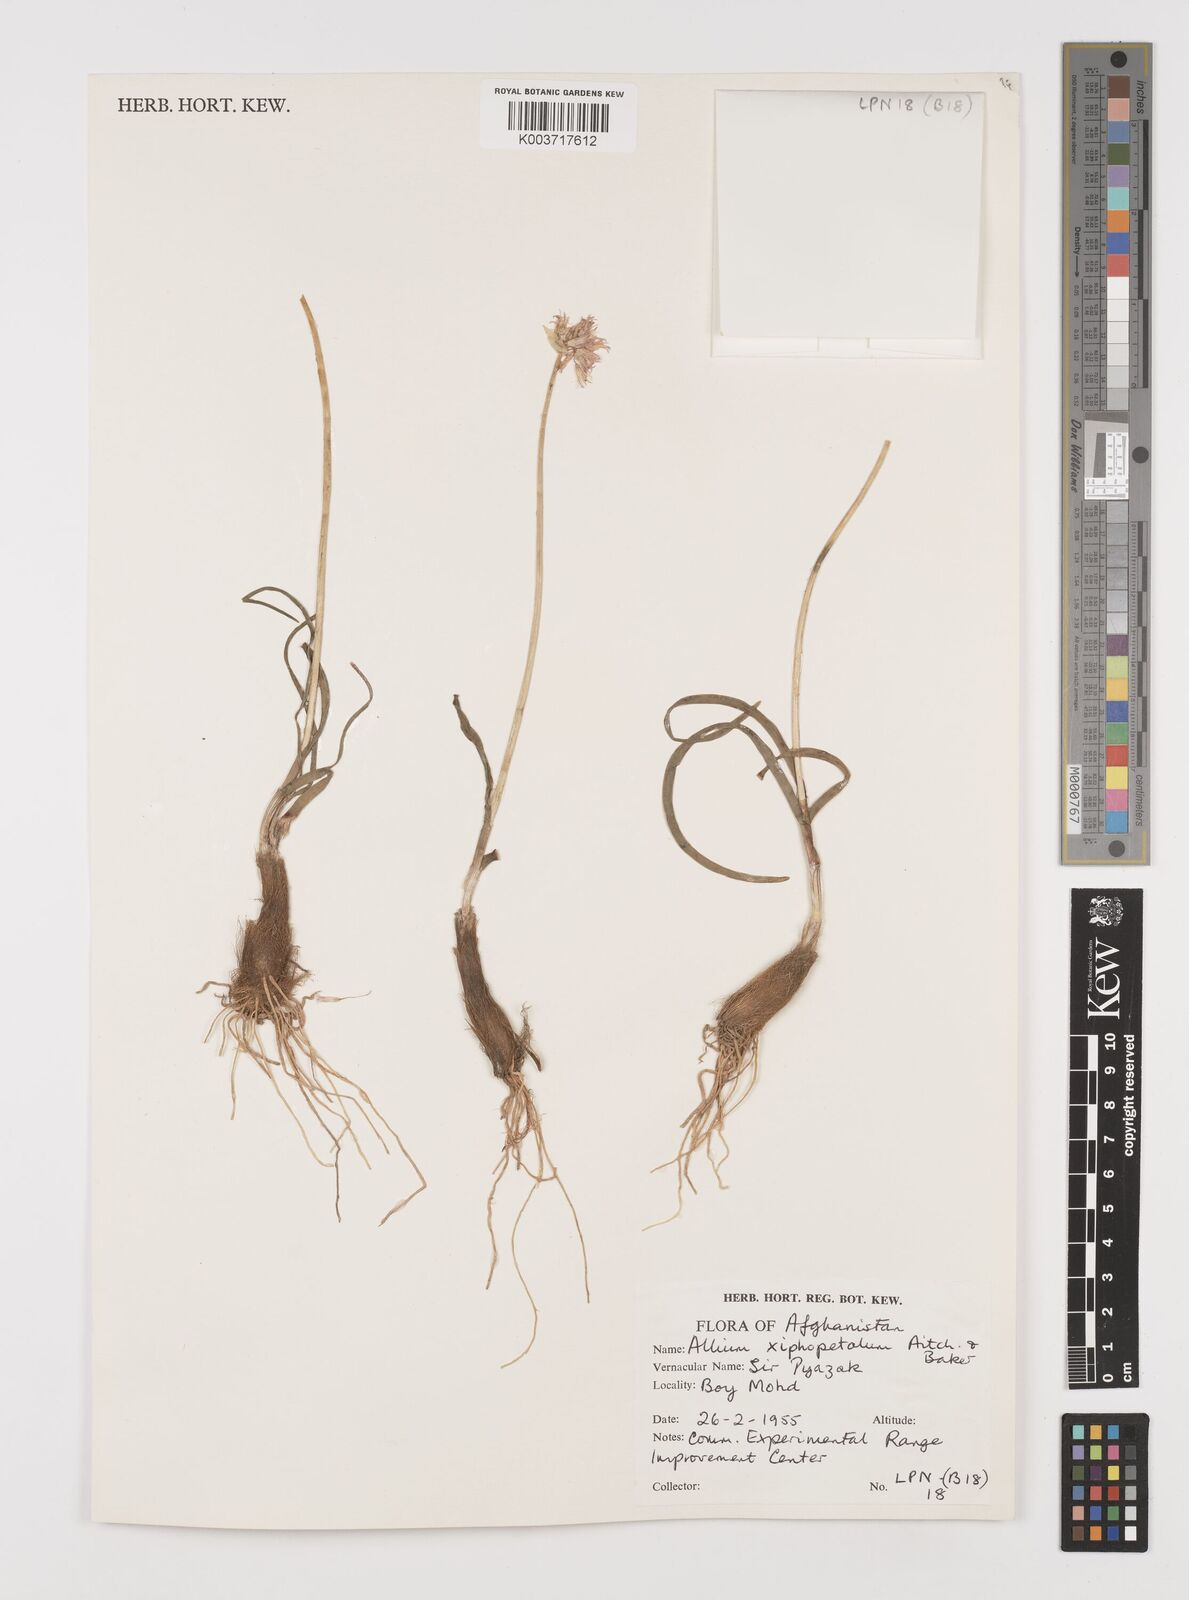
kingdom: Plantae
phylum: Tracheophyta
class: Liliopsida
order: Asparagales
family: Amaryllidaceae
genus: Allium
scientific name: Allium xiphopetalum
